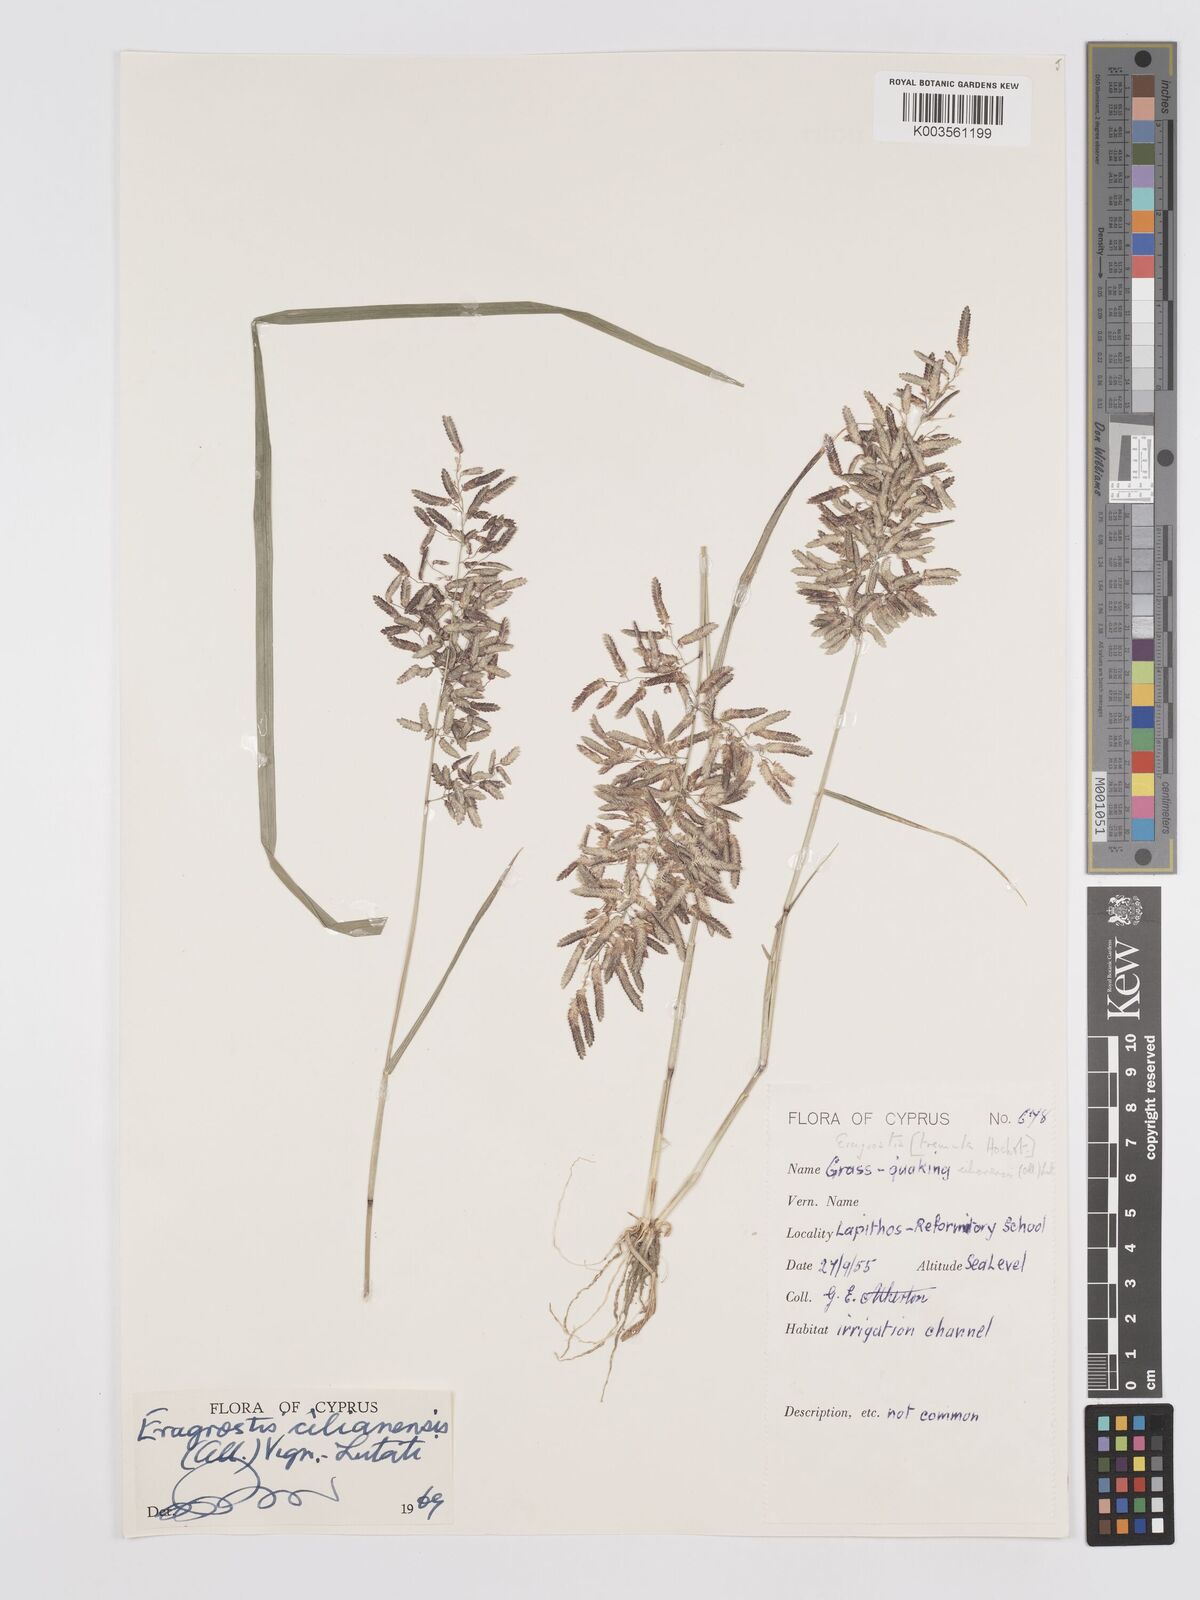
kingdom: Plantae
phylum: Tracheophyta
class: Liliopsida
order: Poales
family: Poaceae
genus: Eragrostis
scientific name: Eragrostis cilianensis
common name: Stinkgrass
